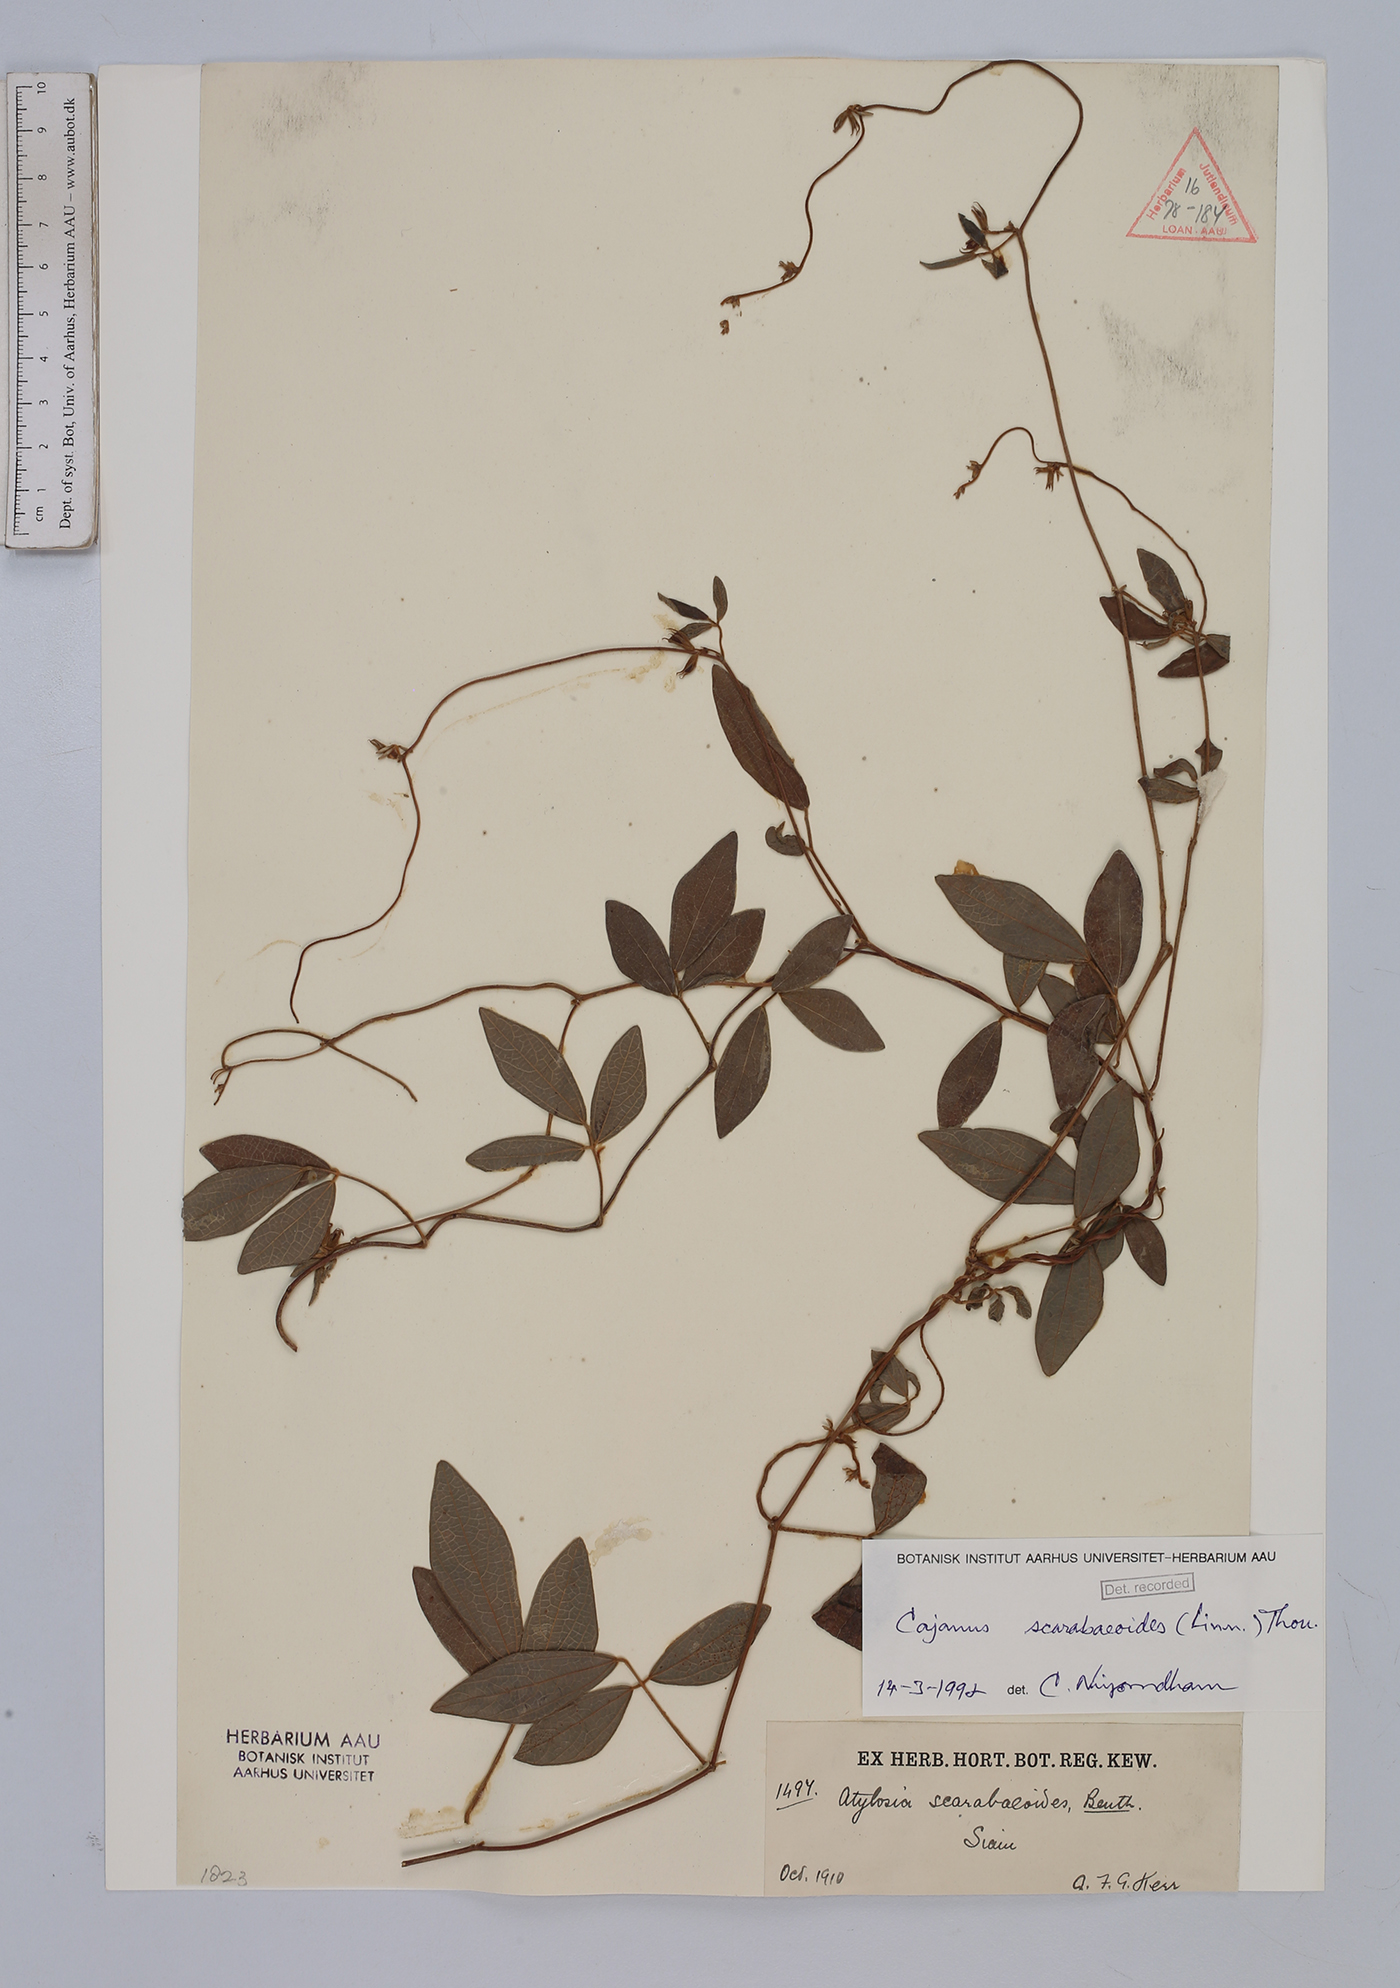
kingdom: Plantae
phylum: Tracheophyta
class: Magnoliopsida
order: Fabales
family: Fabaceae
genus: Cajanus
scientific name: Cajanus scarabaeoides
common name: Showy pigeonpea
